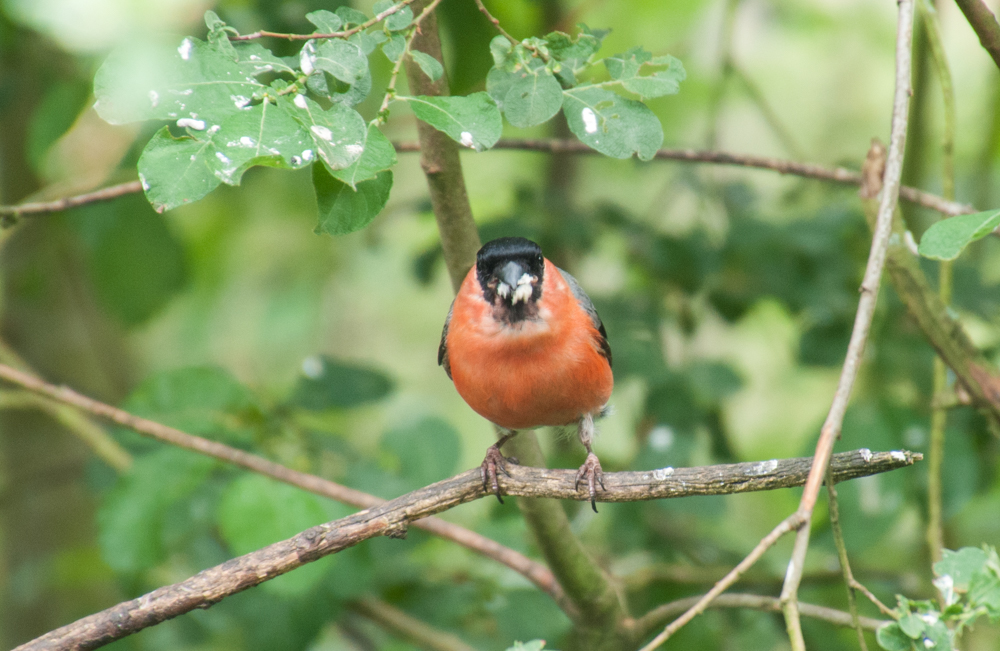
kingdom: Animalia
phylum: Chordata
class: Aves
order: Passeriformes
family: Fringillidae
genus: Pyrrhula
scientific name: Pyrrhula pyrrhula
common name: Eurasian bullfinch
